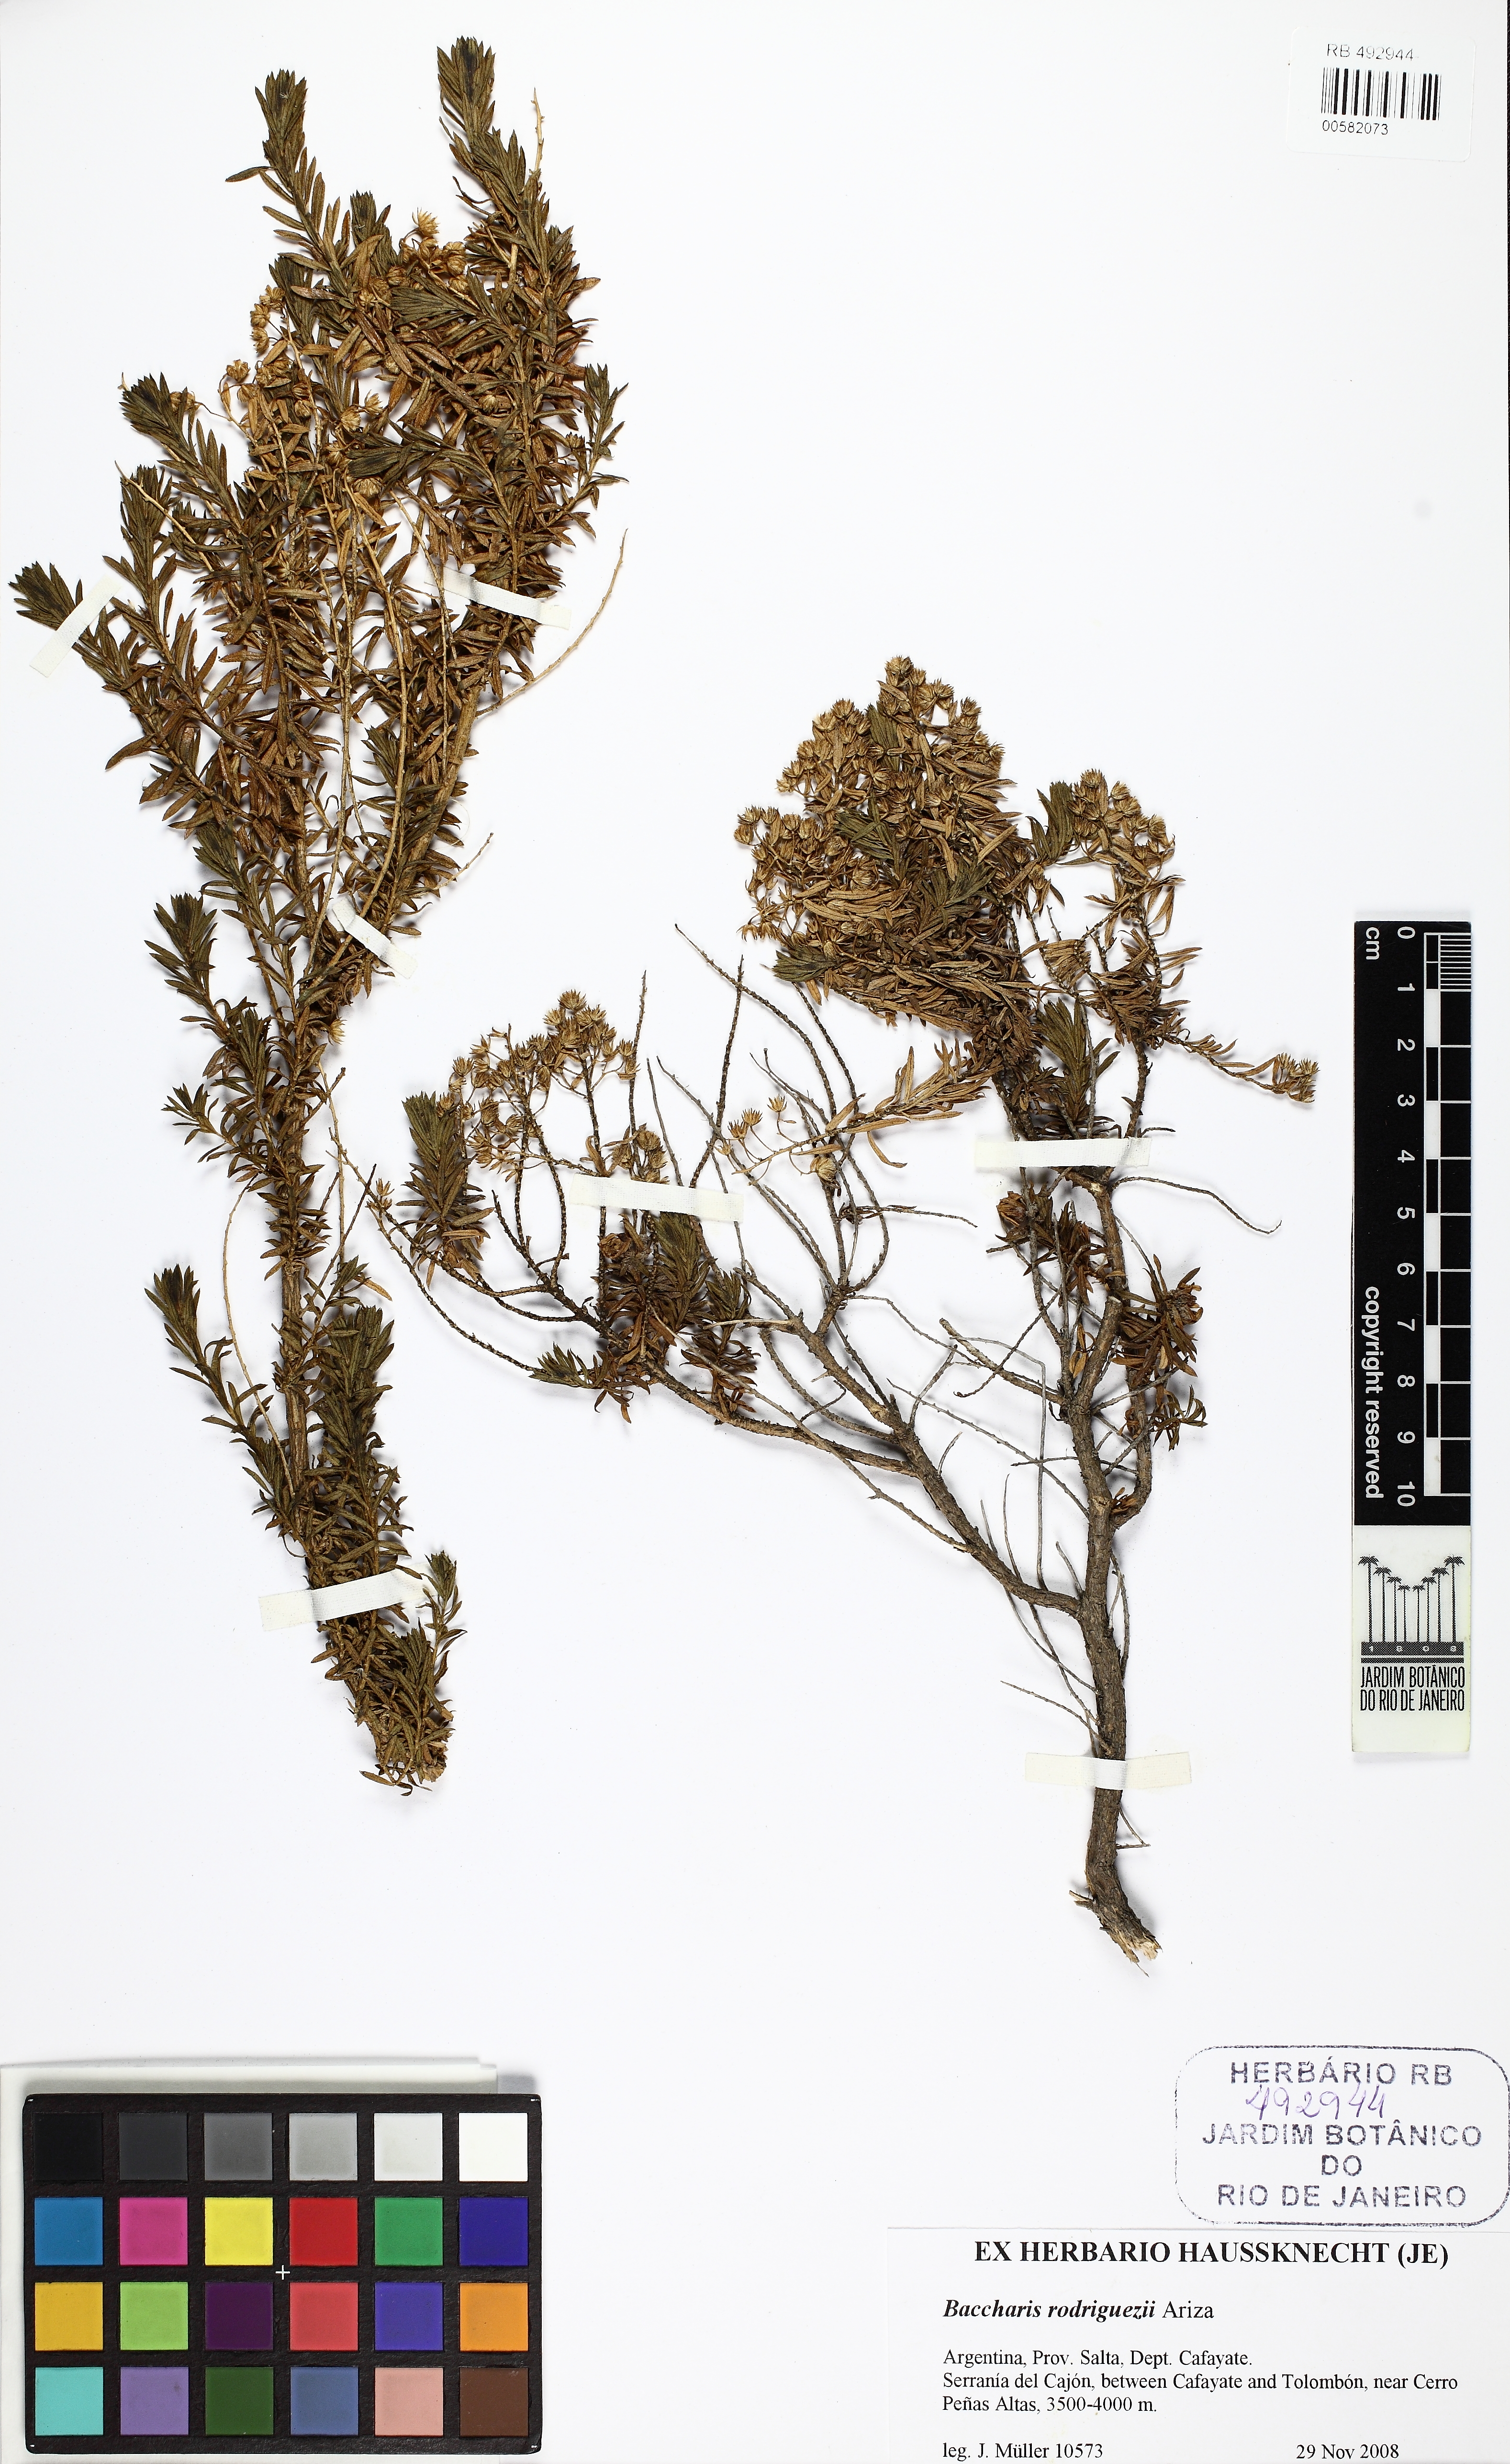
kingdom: Plantae
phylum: Tracheophyta
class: Magnoliopsida
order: Asterales
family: Asteraceae
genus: Baccharis
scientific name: Baccharis rodriguezii
